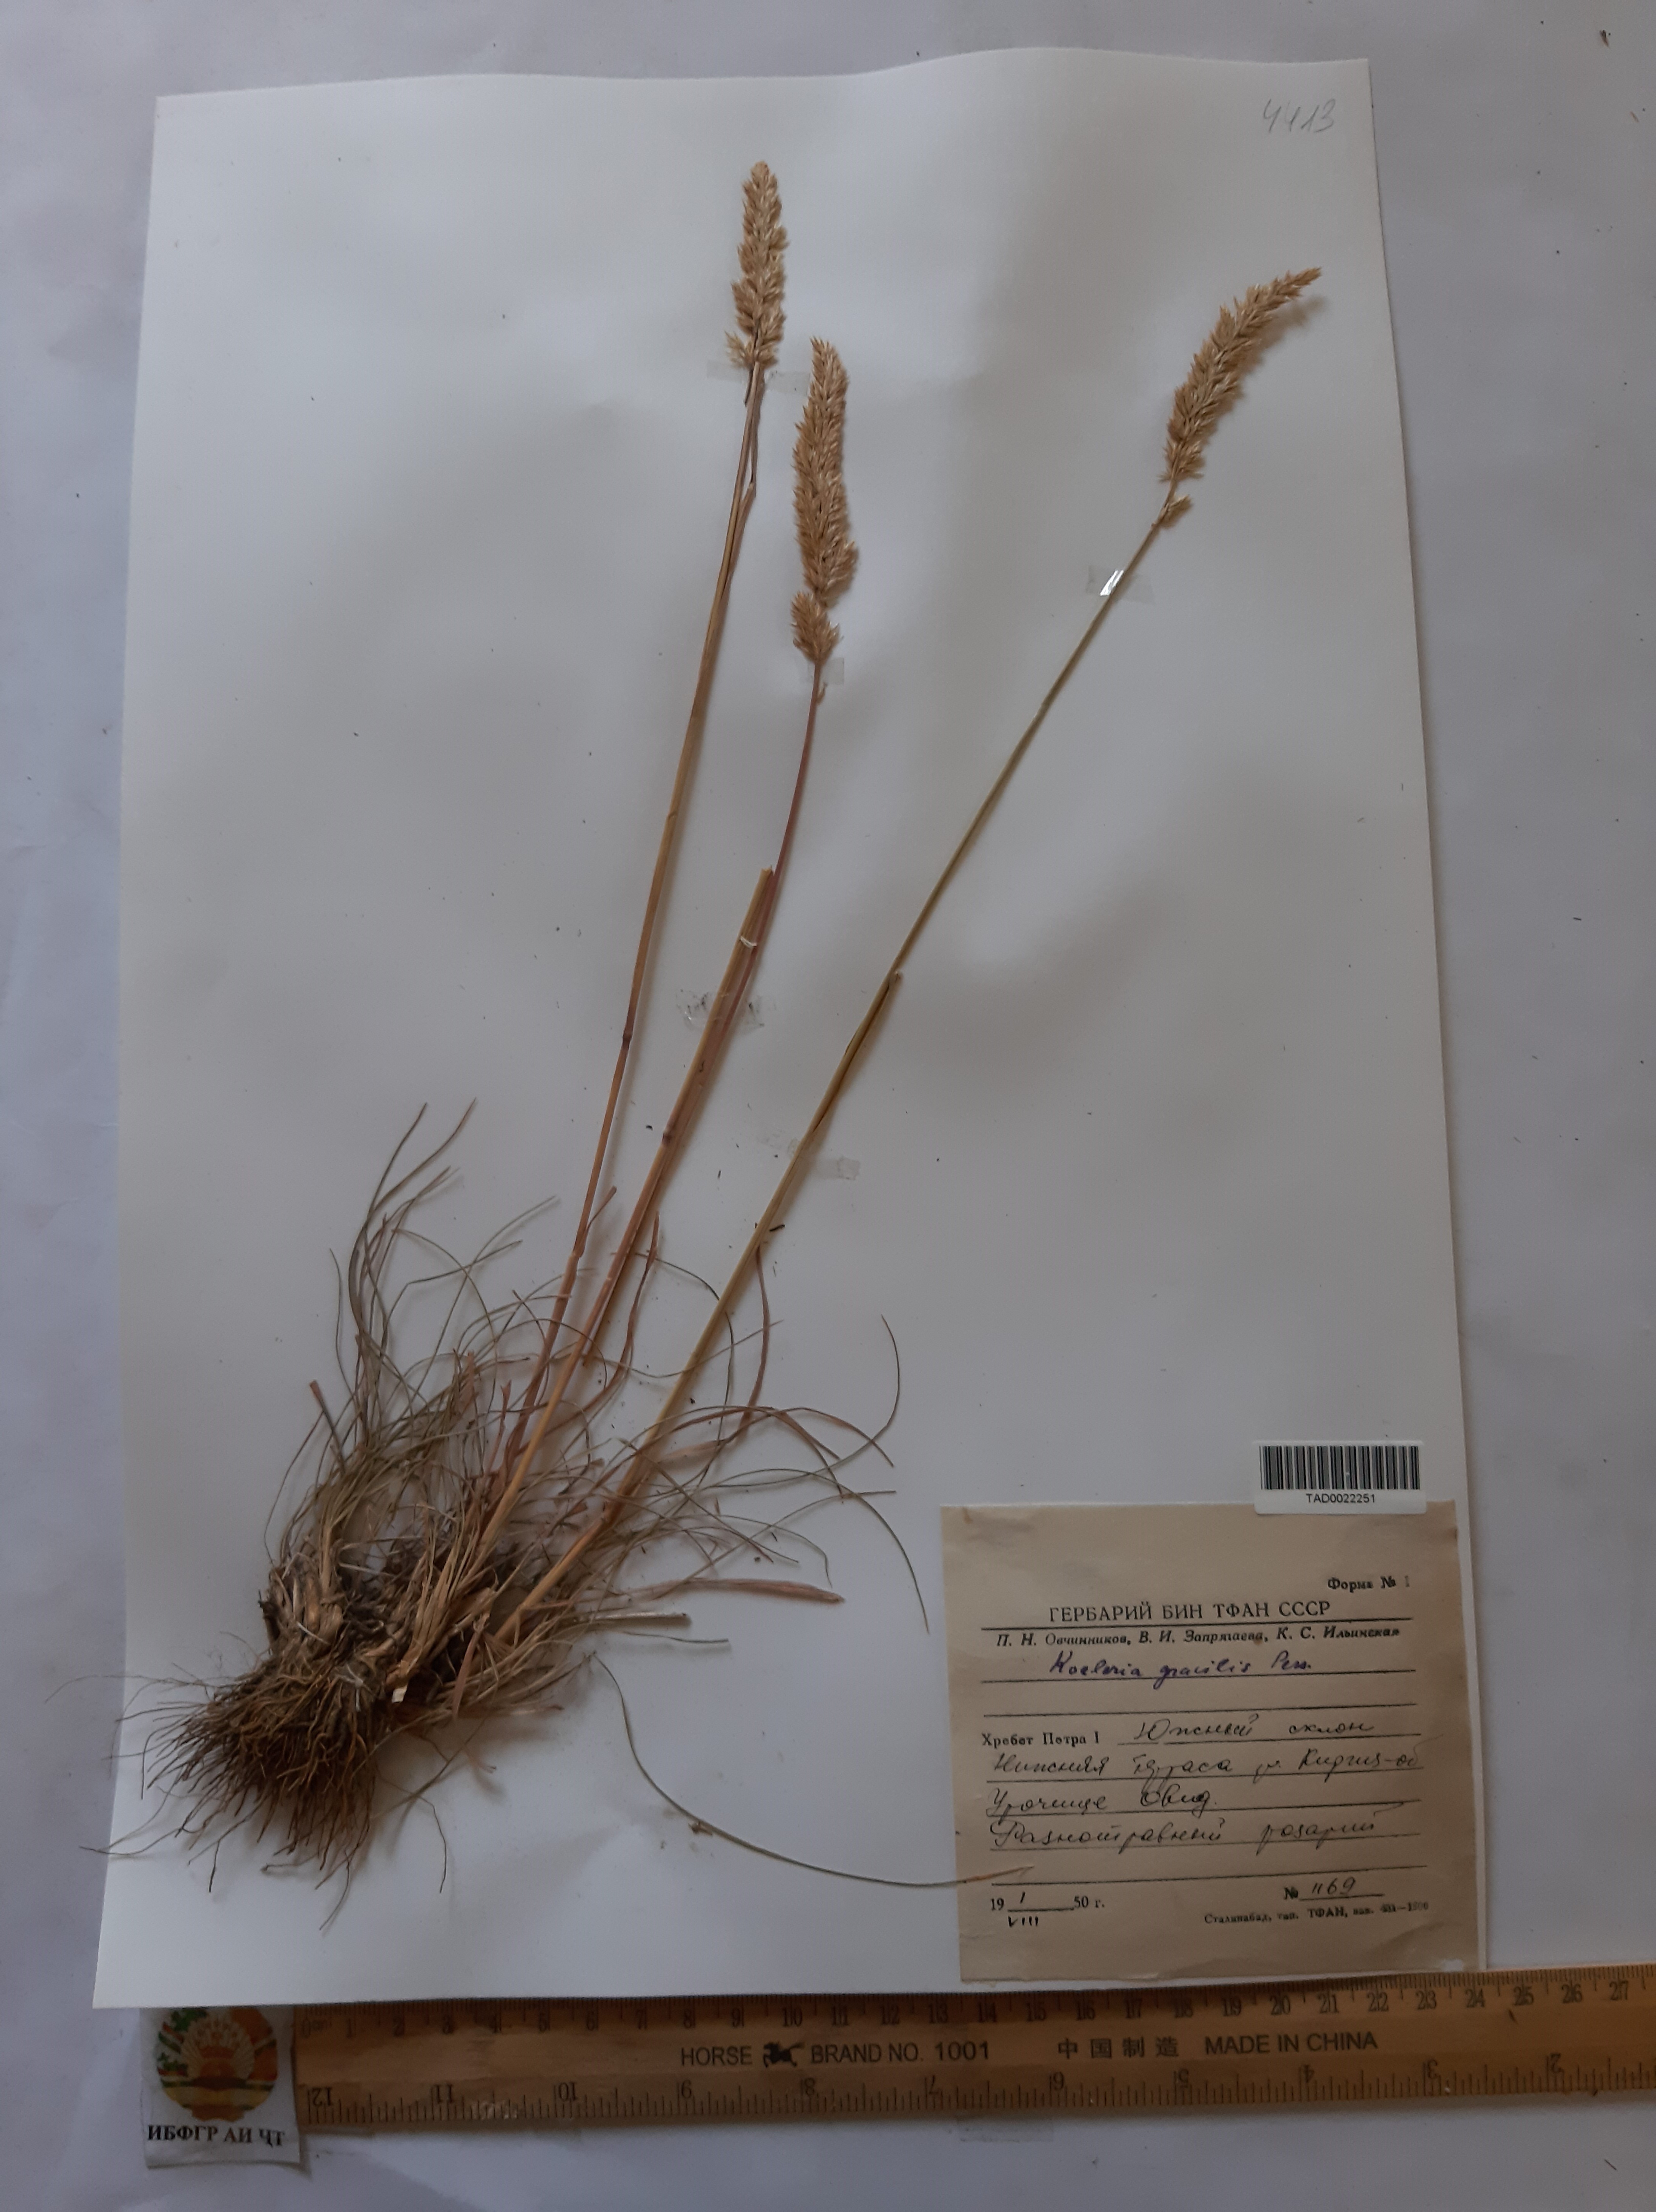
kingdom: Plantae
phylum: Tracheophyta
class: Liliopsida
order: Poales
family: Poaceae
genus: Koeleria
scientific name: Koeleria macrantha
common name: Crested hair-grass
